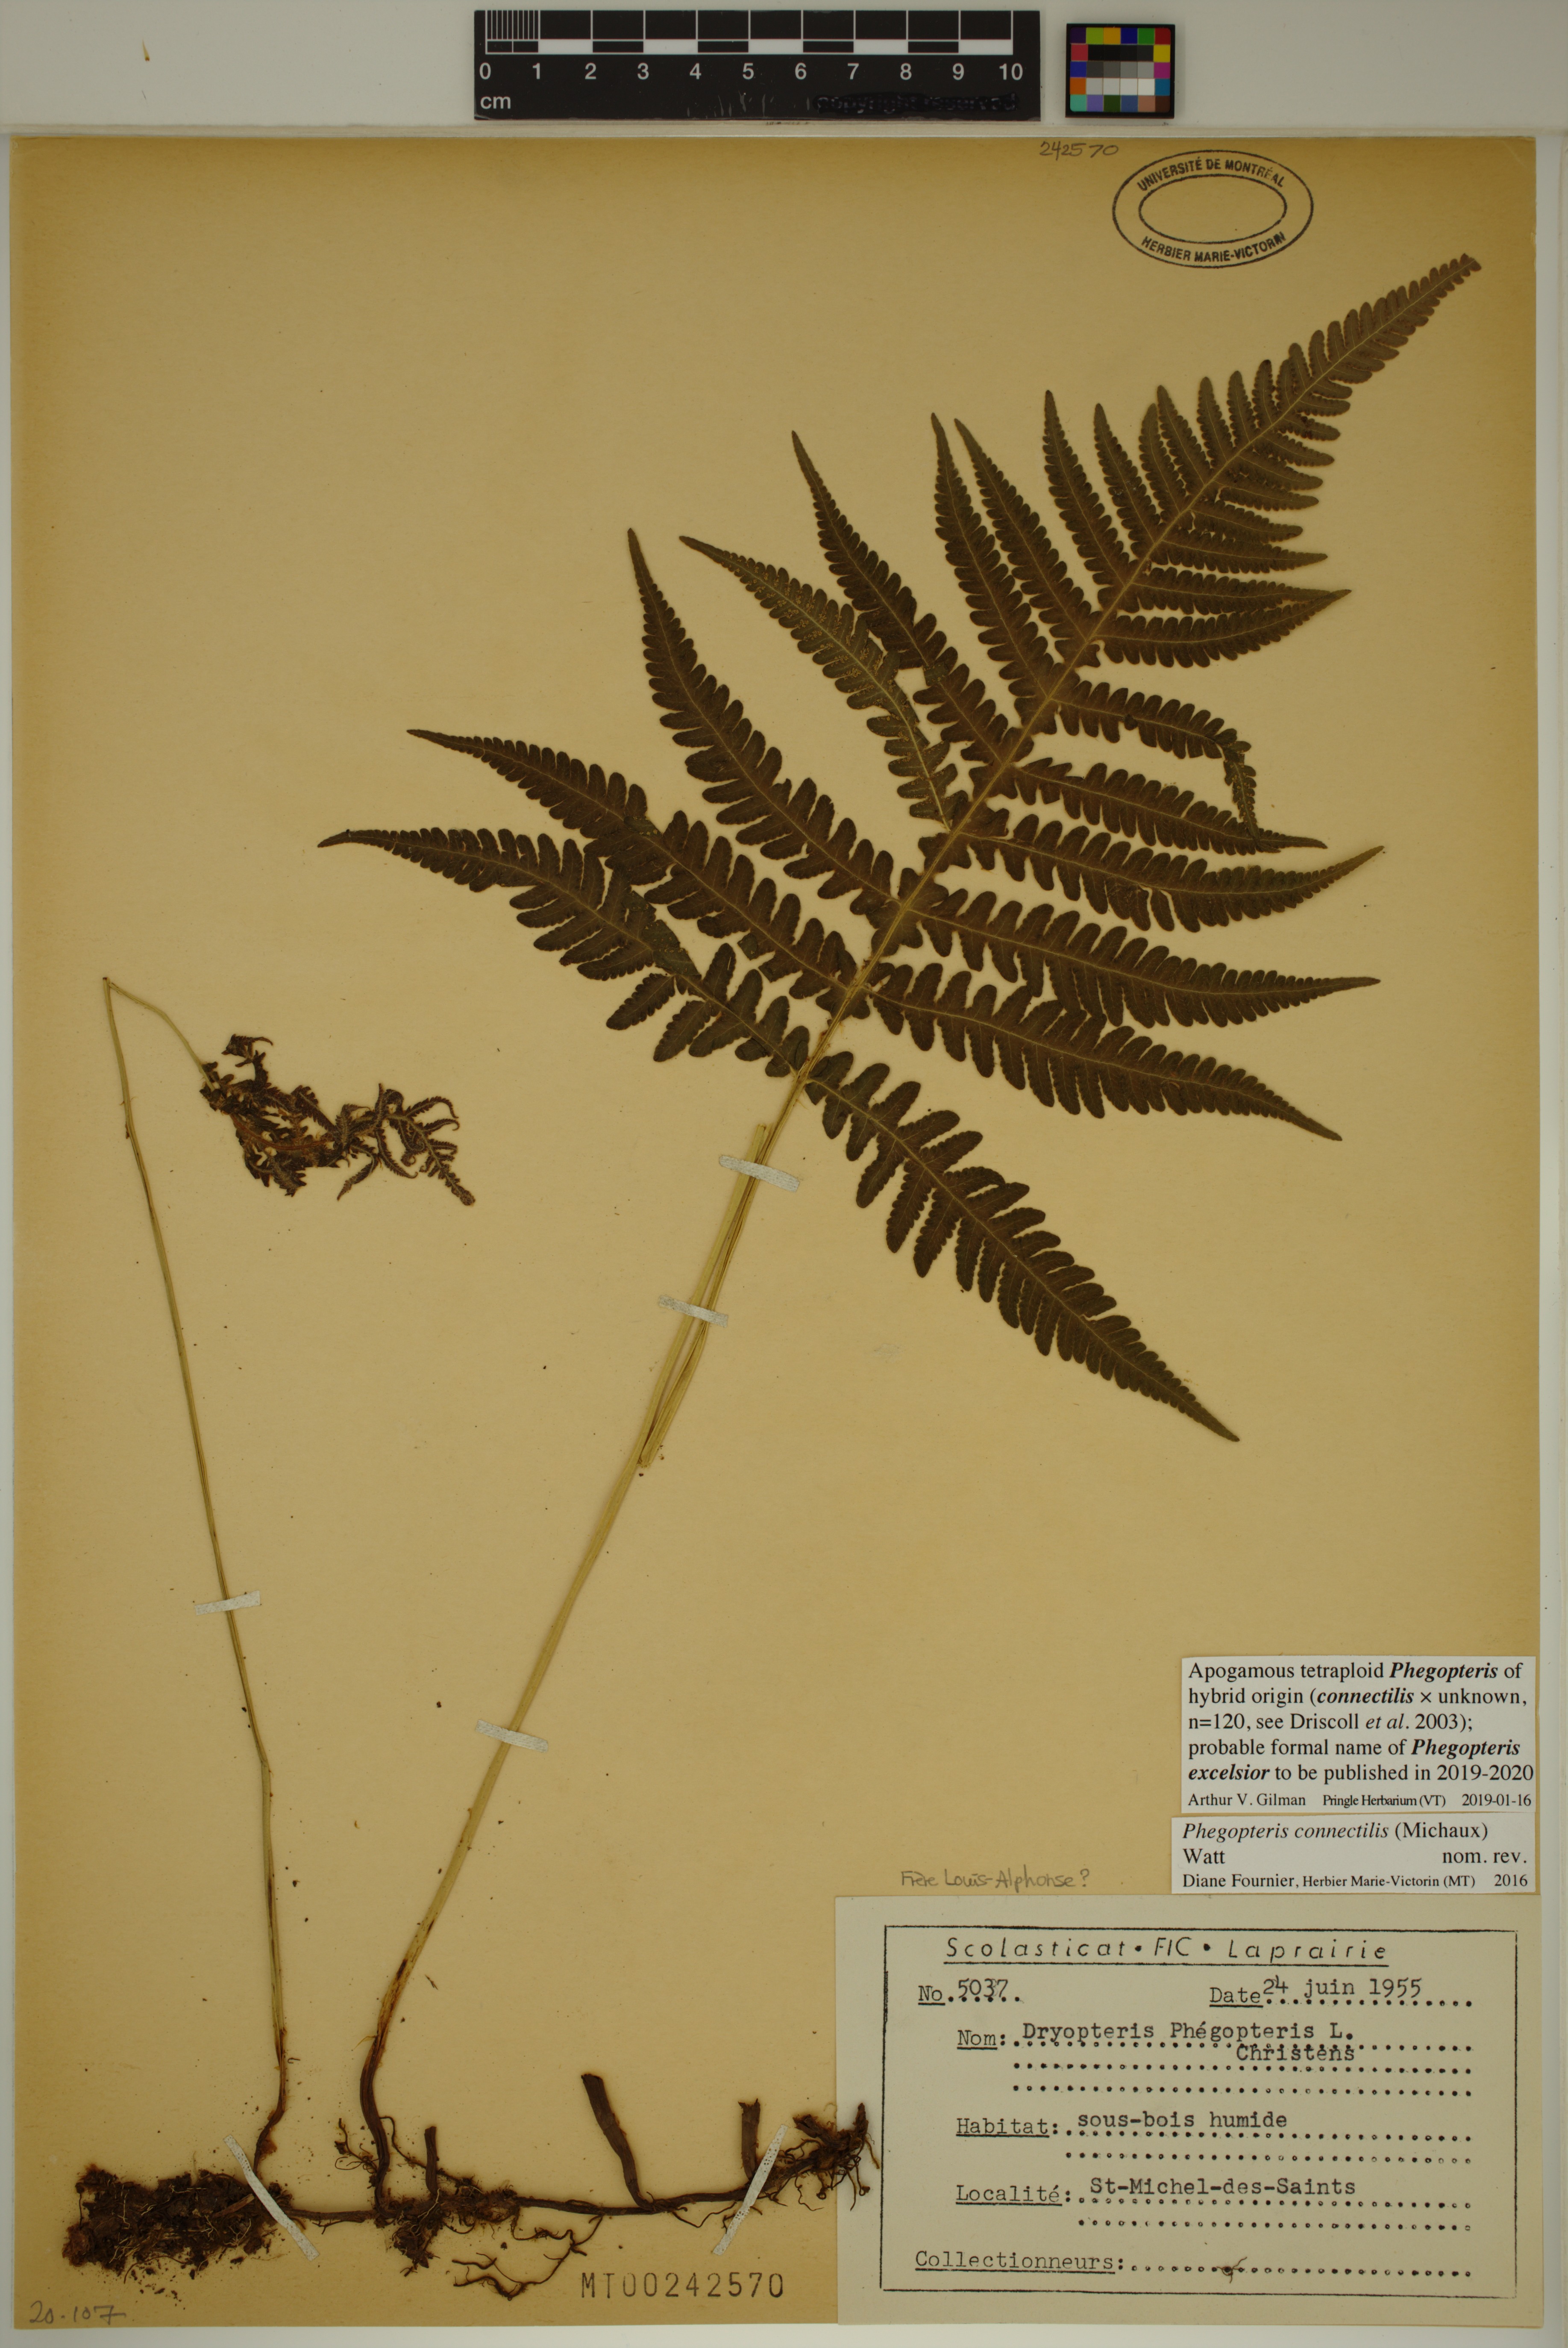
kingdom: Plantae
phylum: Tracheophyta
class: Polypodiopsida
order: Polypodiales
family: Thelypteridaceae
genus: Phegopteris
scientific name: Phegopteris
